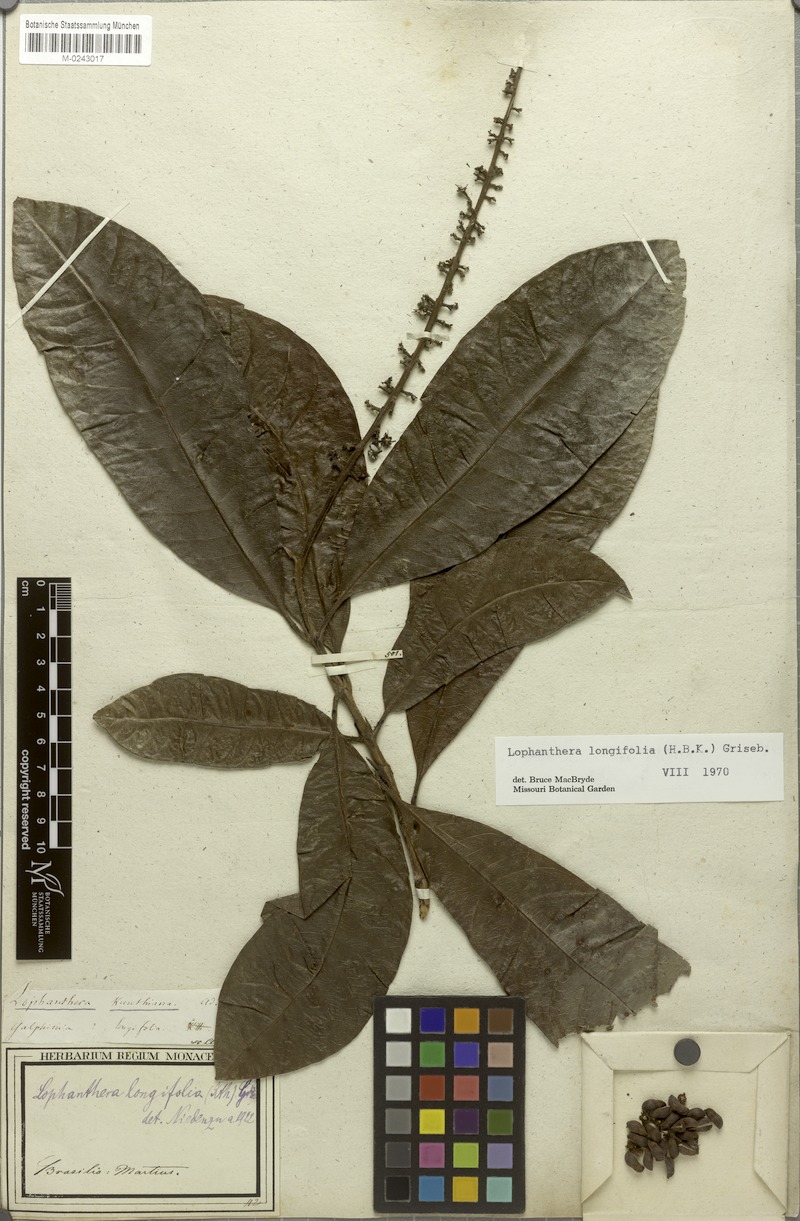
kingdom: Plantae
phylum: Tracheophyta
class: Magnoliopsida
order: Malpighiales
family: Malpighiaceae
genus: Lophanthera
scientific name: Lophanthera longifolia
